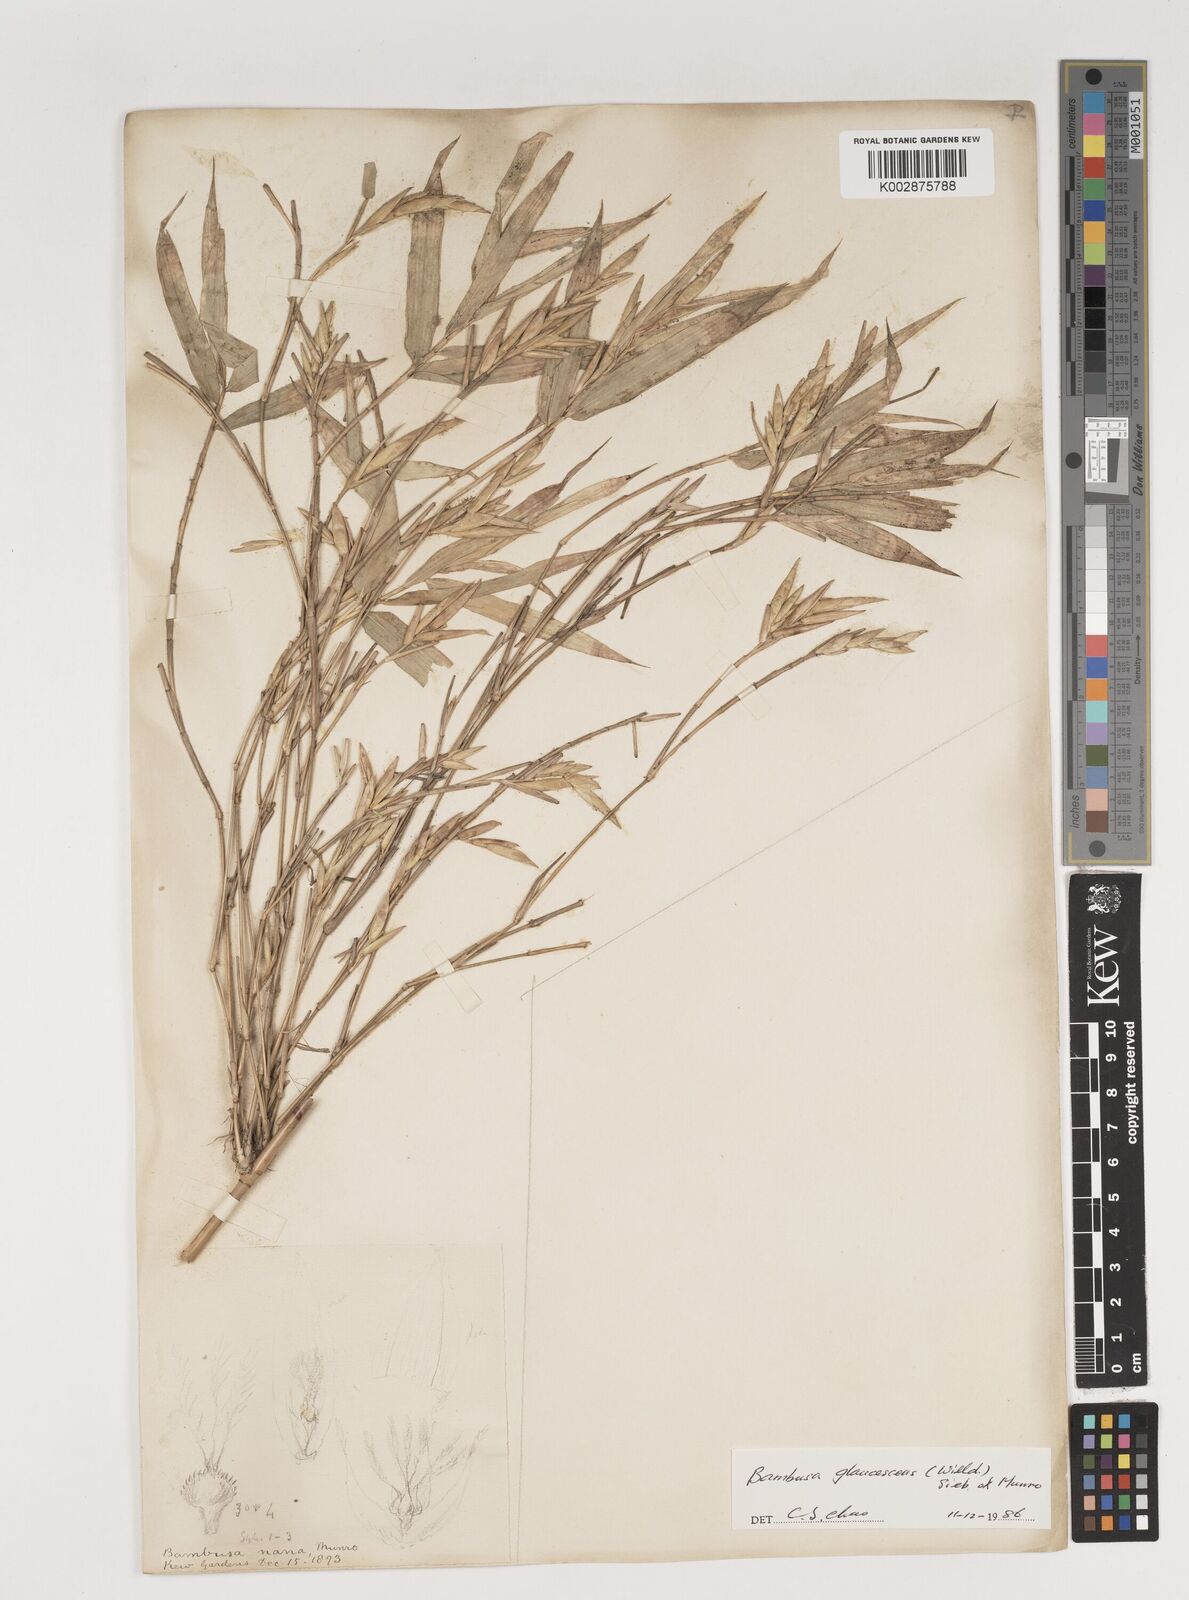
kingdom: Plantae
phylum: Tracheophyta
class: Liliopsida
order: Poales
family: Poaceae
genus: Bambusa
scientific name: Bambusa multiplex
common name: Hedge bamboo
